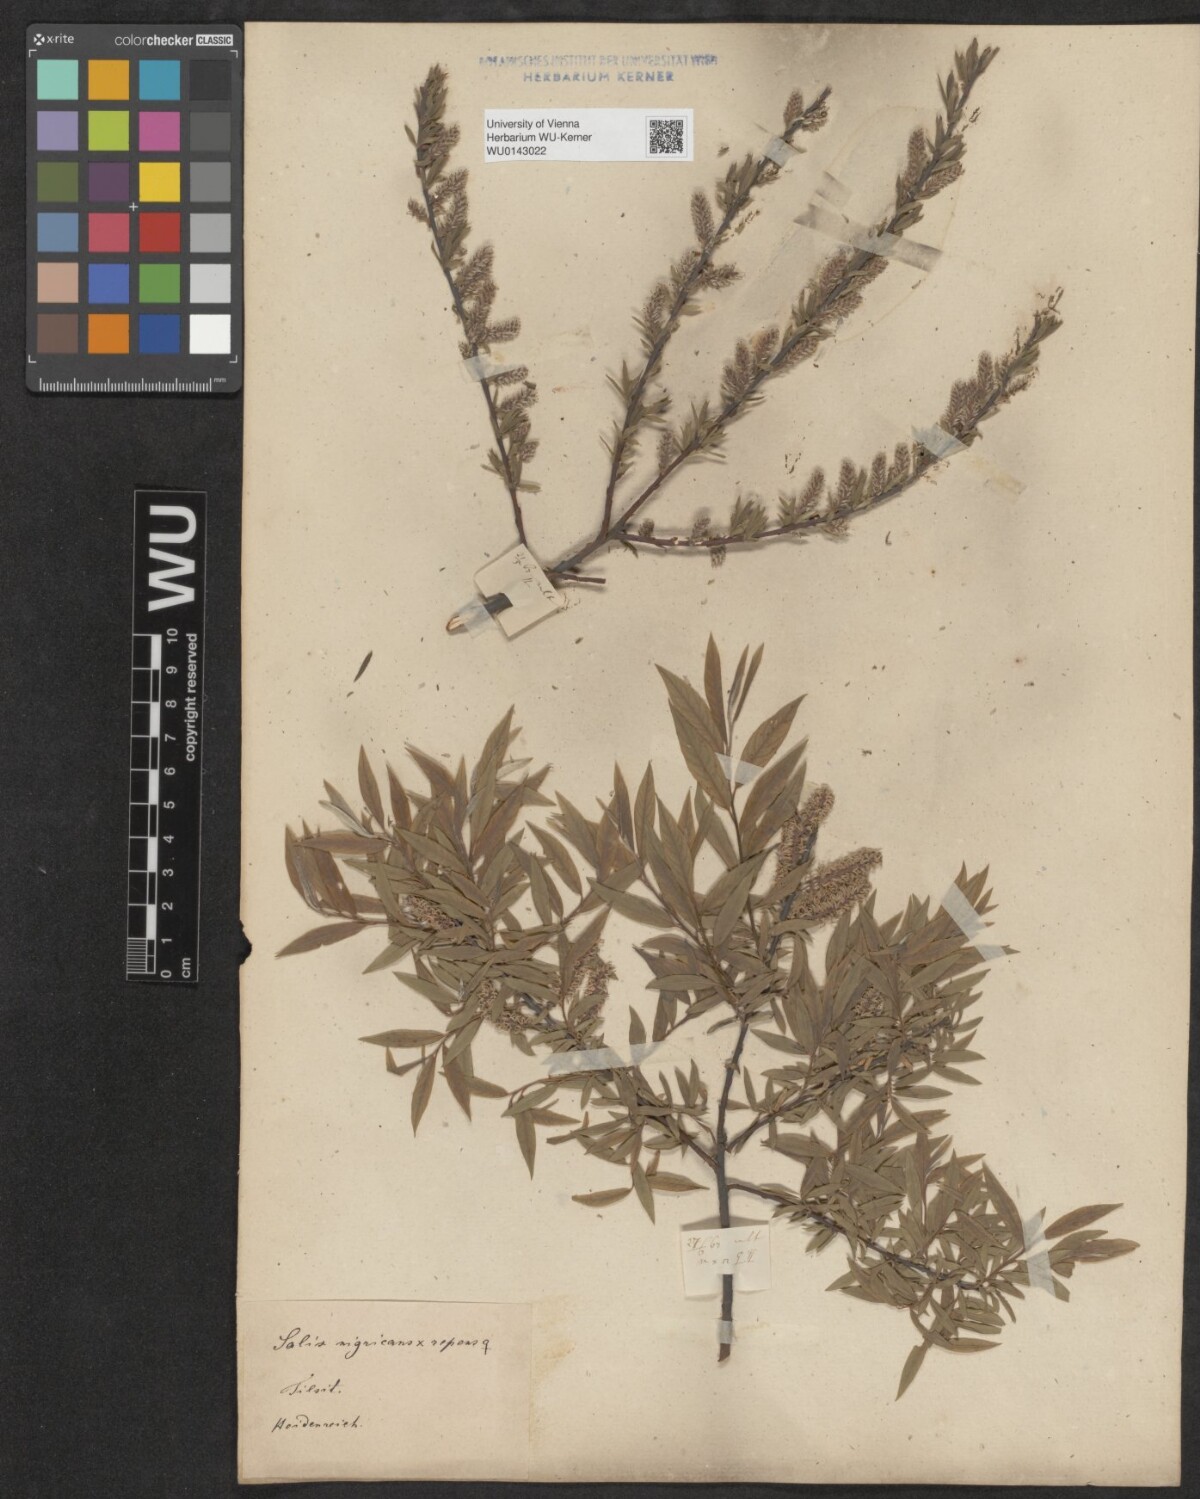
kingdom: Plantae
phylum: Tracheophyta
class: Magnoliopsida
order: Malpighiales
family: Salicaceae
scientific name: Salicaceae
